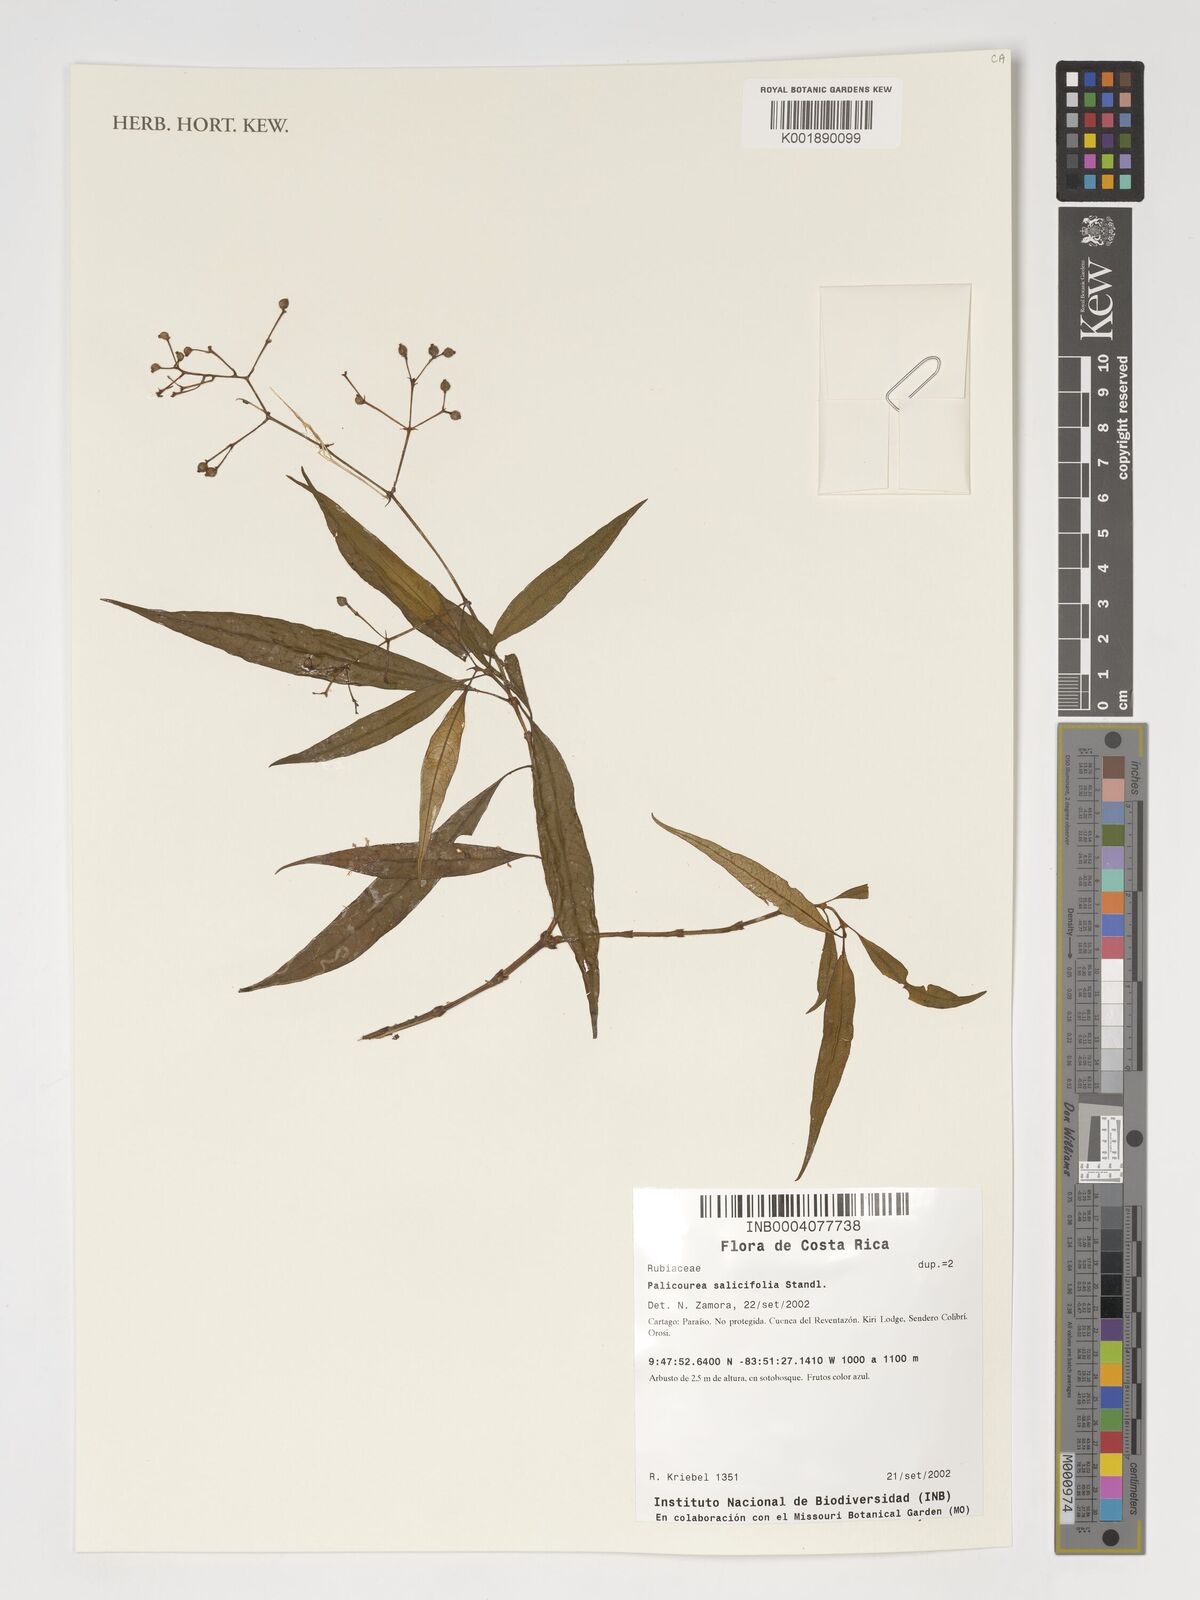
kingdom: Plantae
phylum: Tracheophyta
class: Magnoliopsida
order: Gentianales
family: Rubiaceae
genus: Palicourea
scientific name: Palicourea salicifolia
